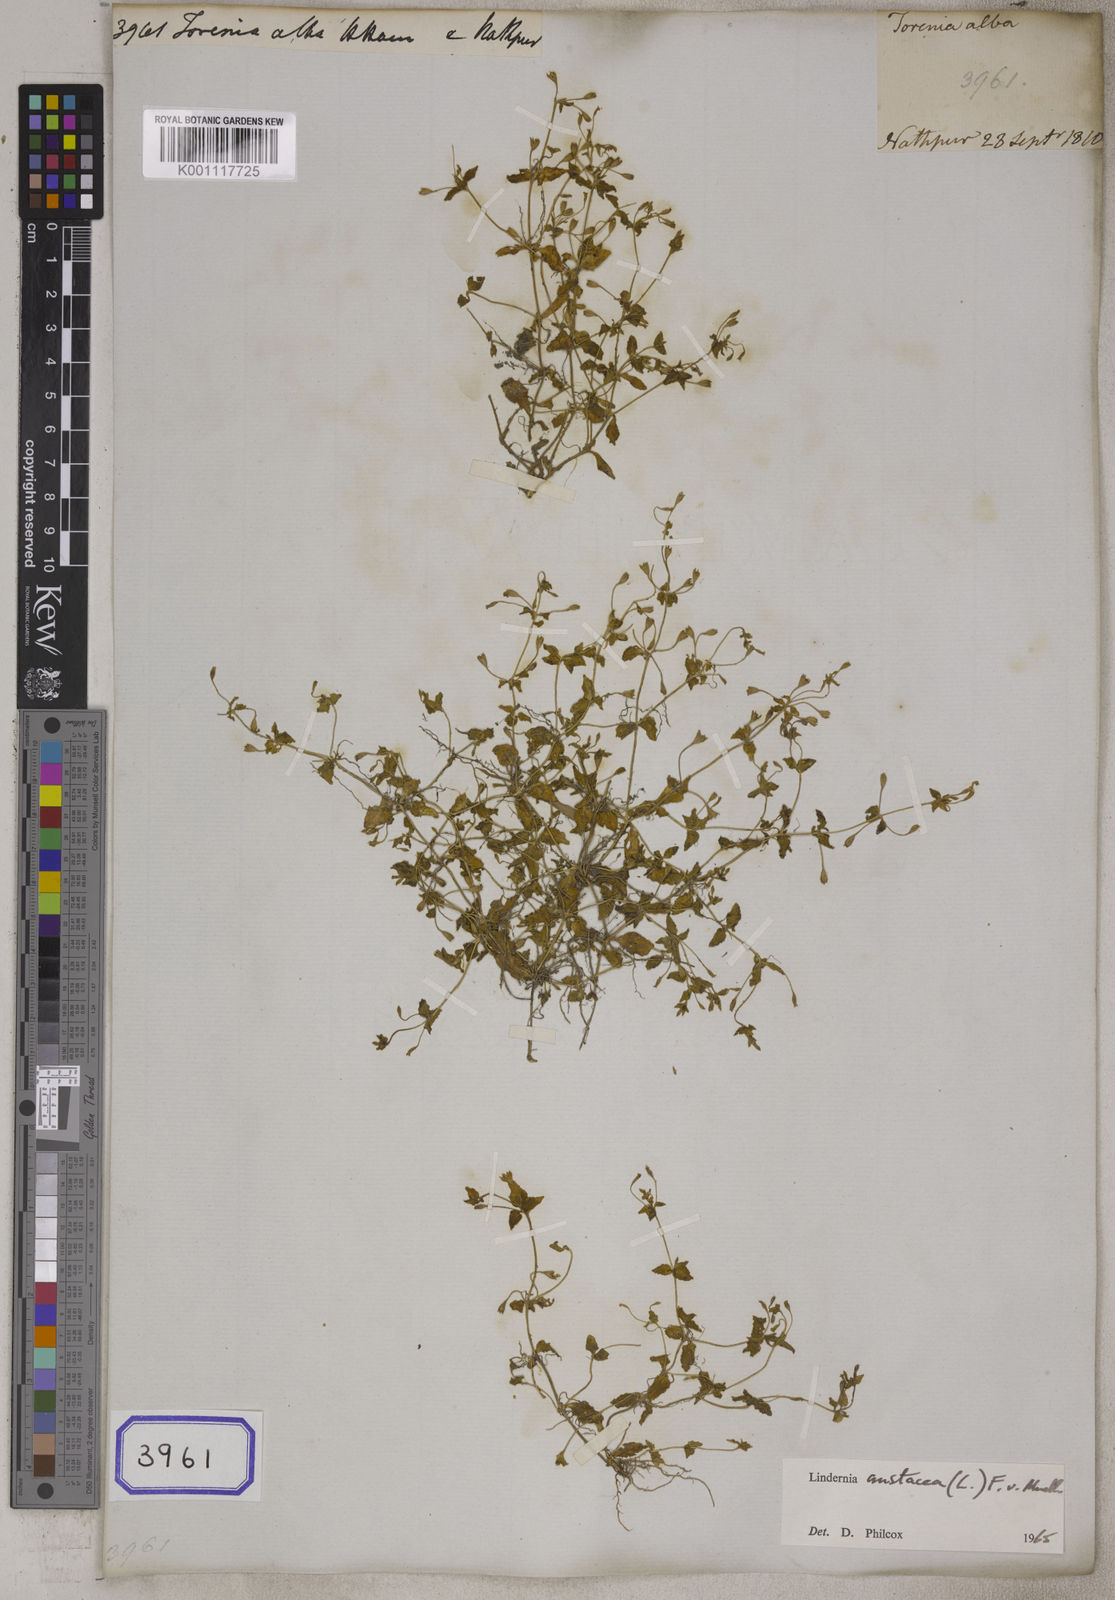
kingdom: Plantae
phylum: Tracheophyta
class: Magnoliopsida
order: Lamiales
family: Linderniaceae
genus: Torenia
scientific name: Torenia violacea
